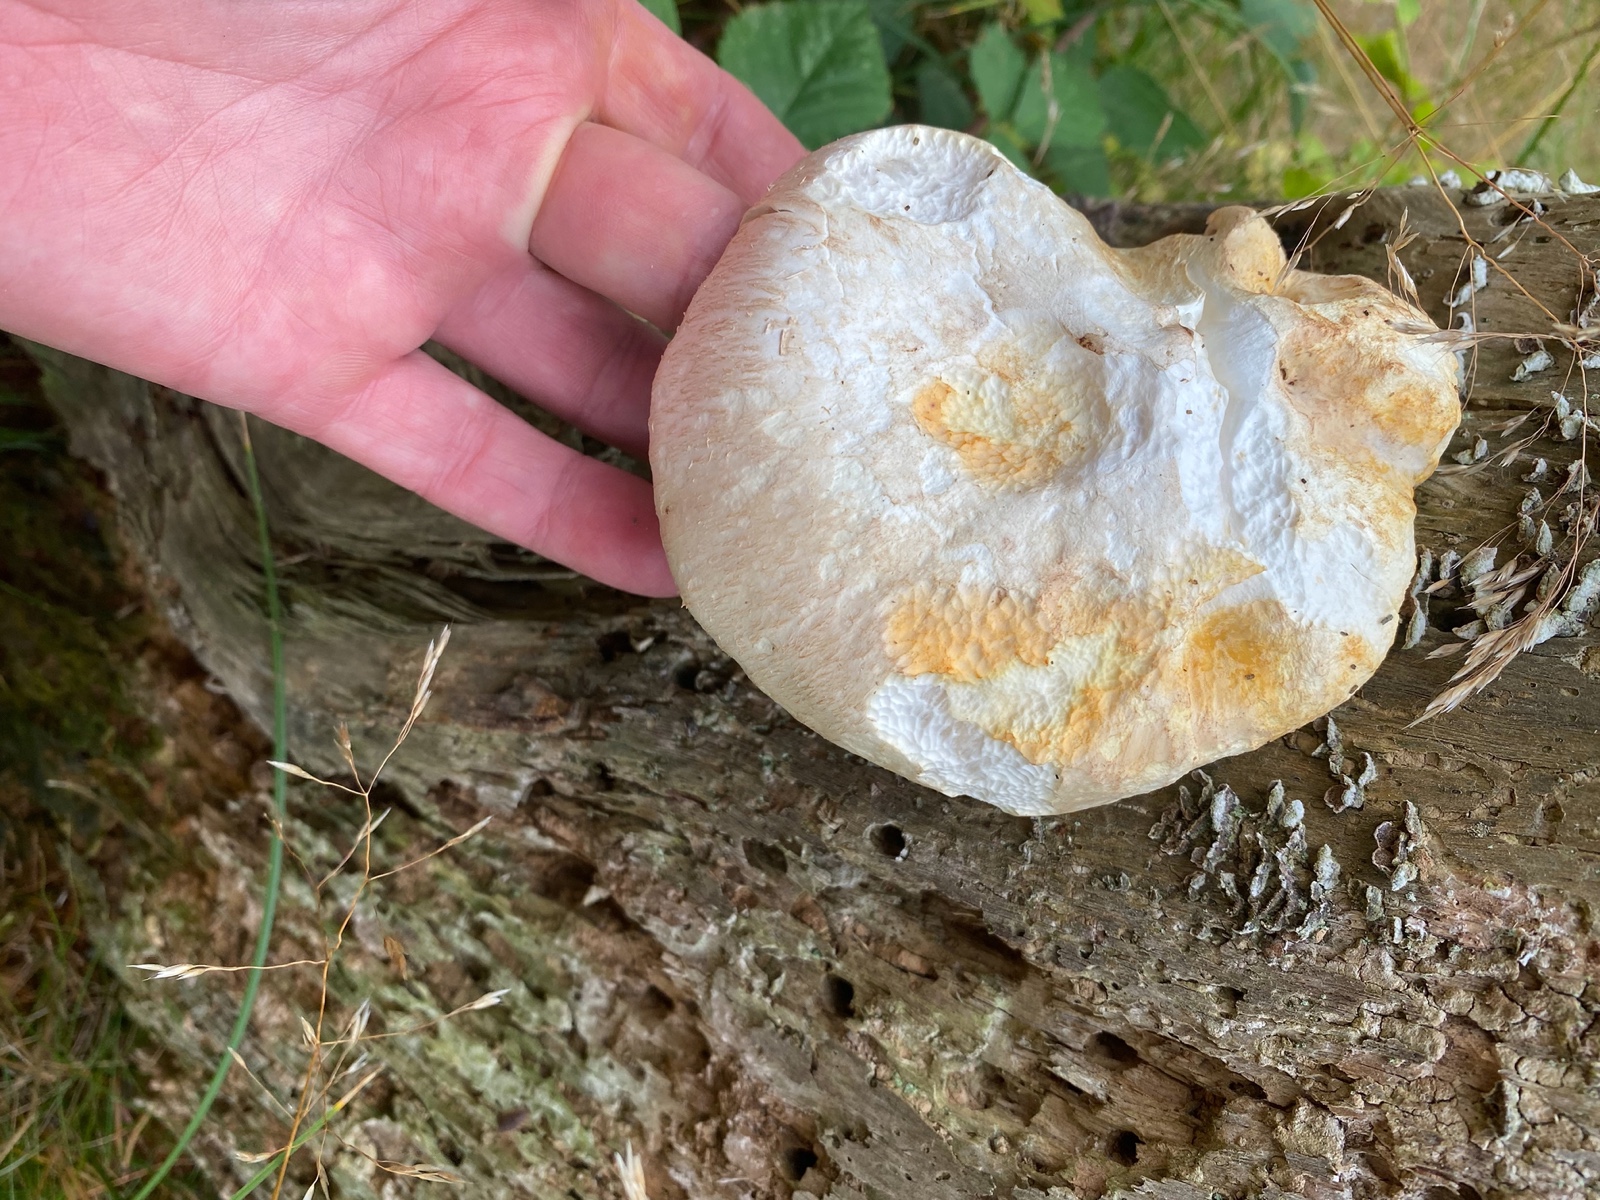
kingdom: Fungi
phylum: Basidiomycota
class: Agaricomycetes
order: Gloeophyllales
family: Gloeophyllaceae
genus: Neolentinus
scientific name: Neolentinus lepideus
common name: skællet sejhat
